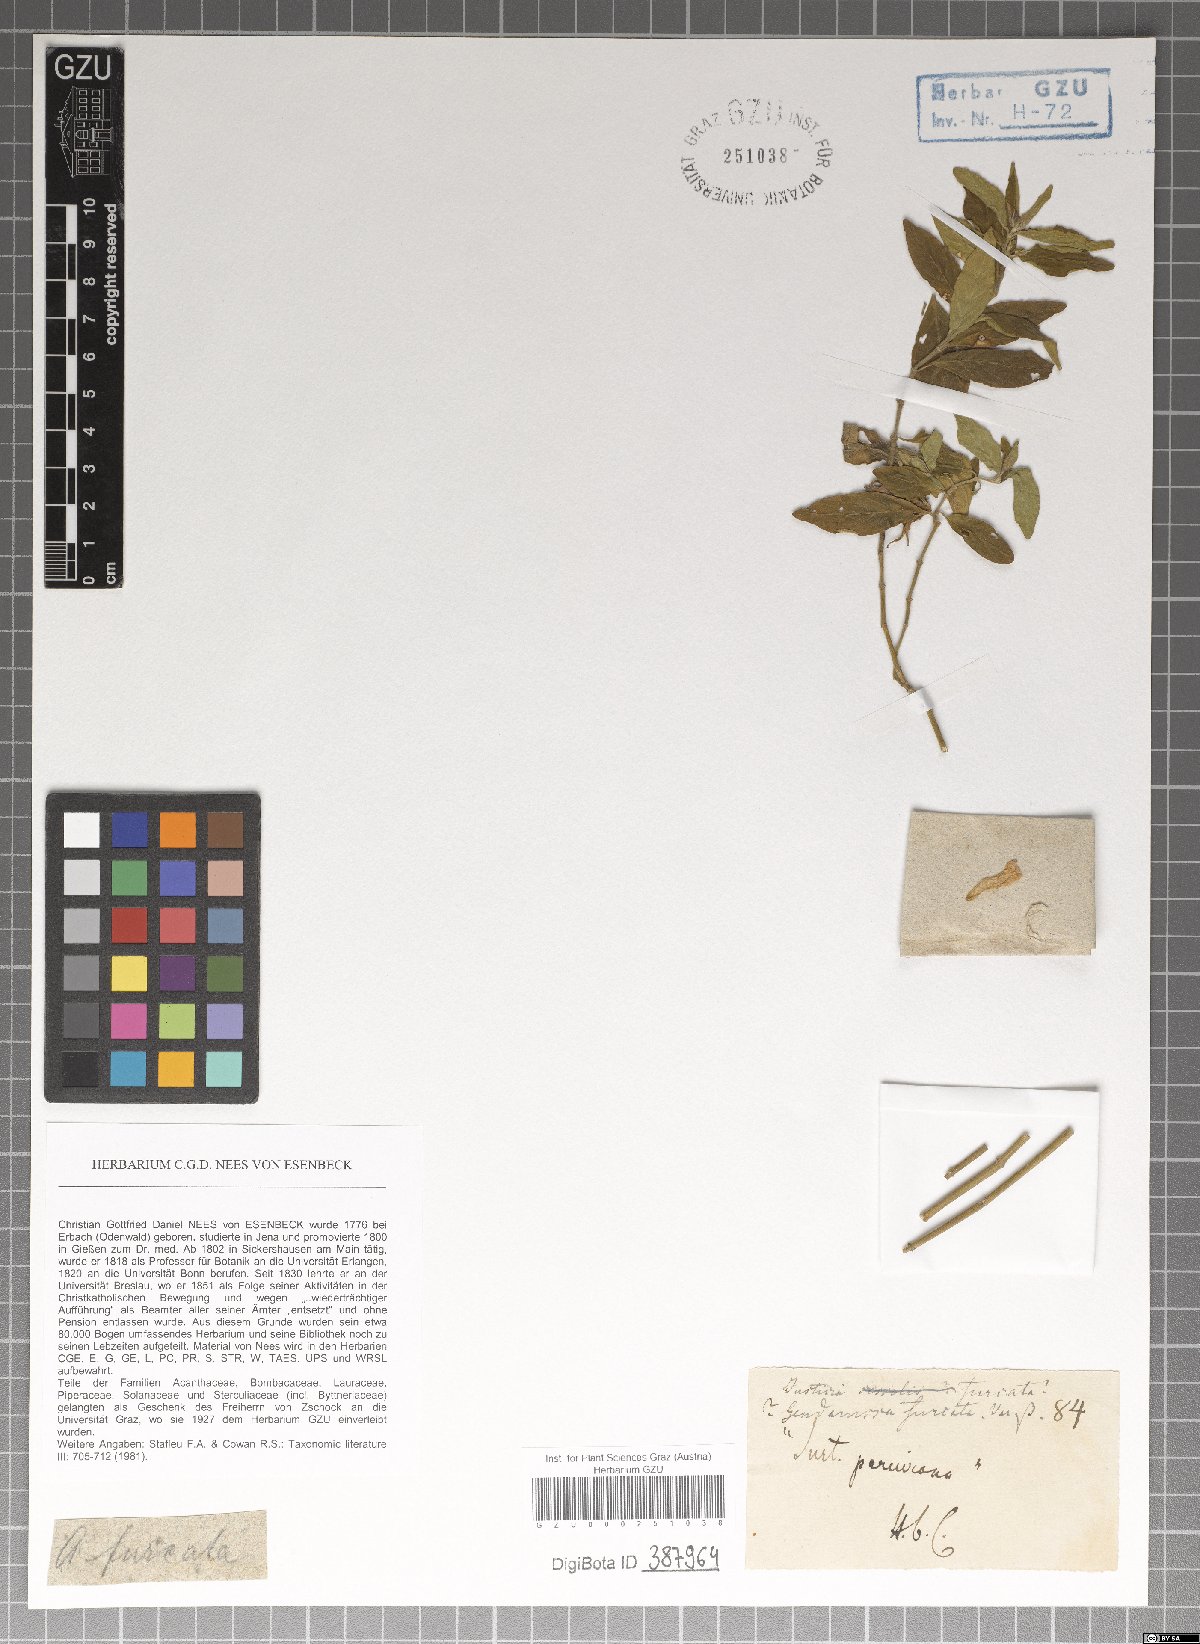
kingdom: Plantae
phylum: Tracheophyta
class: Magnoliopsida
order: Lamiales
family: Acanthaceae
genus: Justicia
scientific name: Justicia furcata
